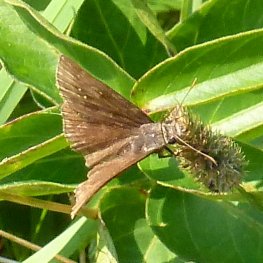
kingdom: Animalia
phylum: Arthropoda
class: Insecta
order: Lepidoptera
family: Hesperiidae
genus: Gesta
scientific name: Gesta
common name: Wild Indigo Duskywing
